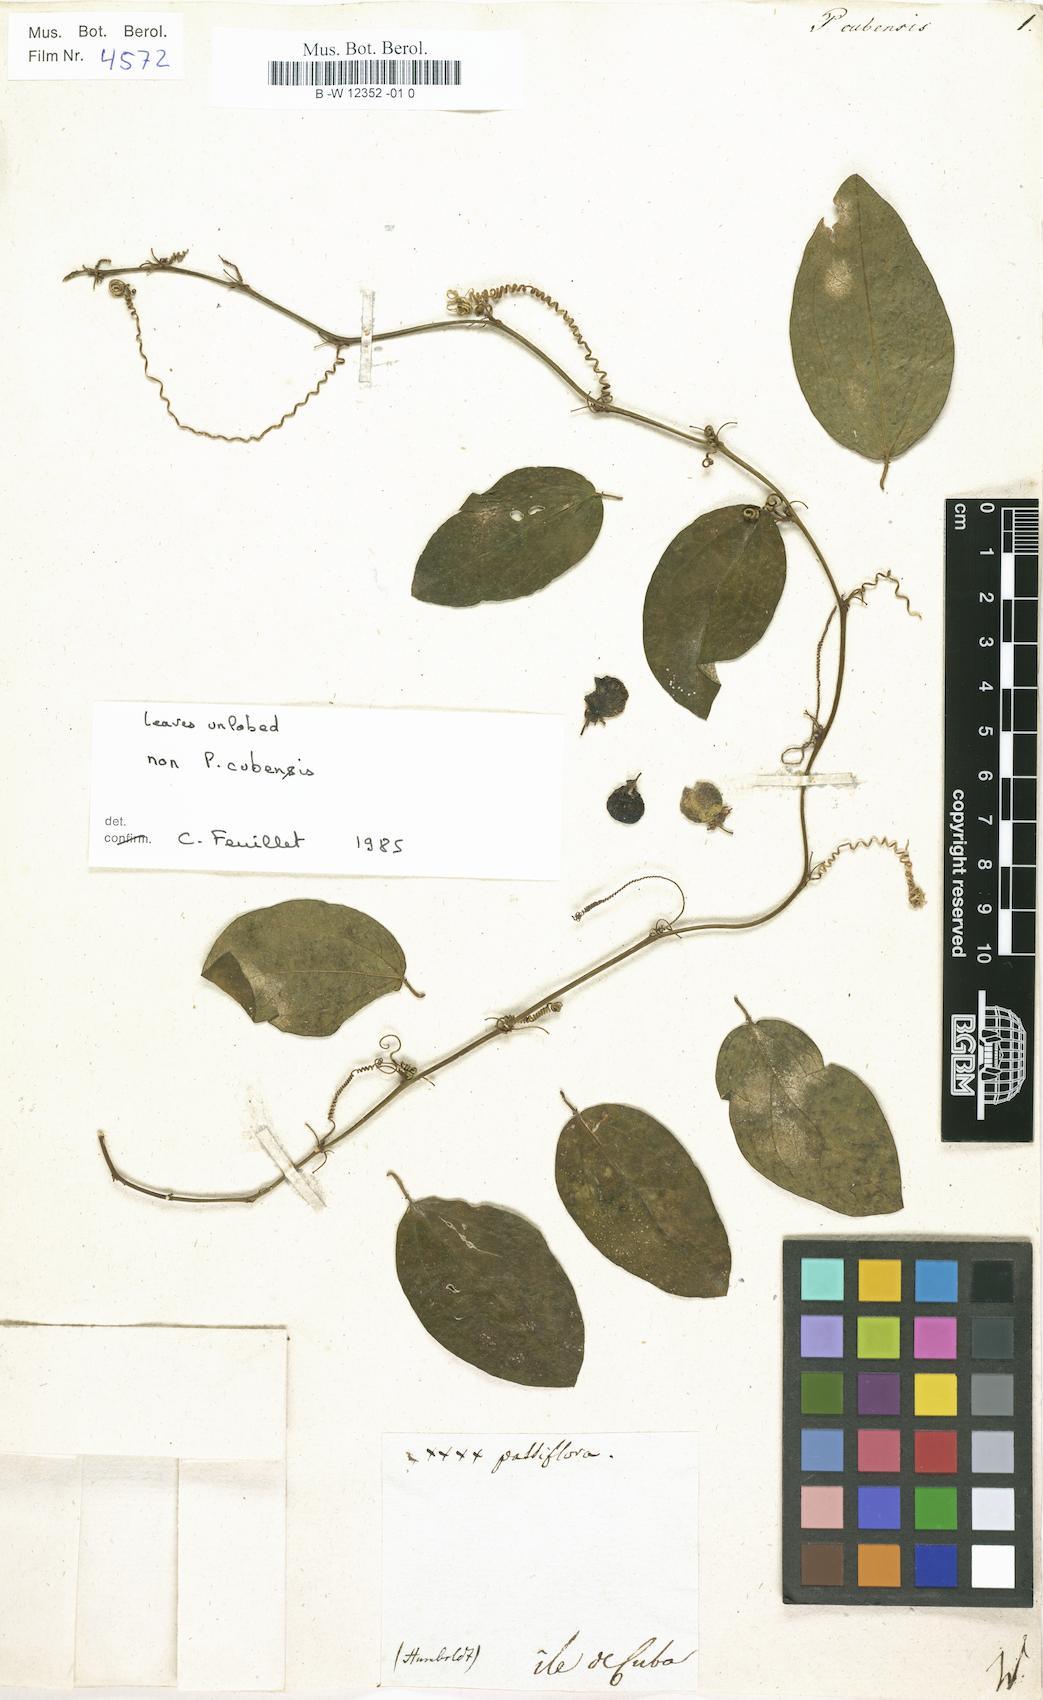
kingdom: Plantae
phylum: Tracheophyta
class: Magnoliopsida
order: Malpighiales
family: Passifloraceae
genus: Passiflora
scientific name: Passiflora cubensis
